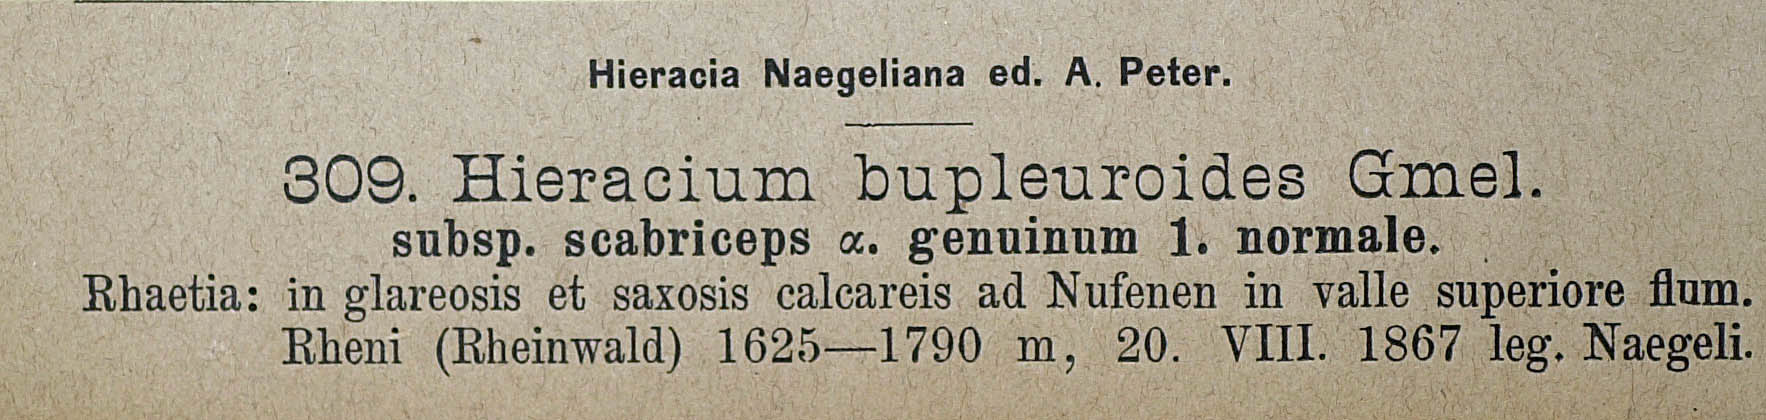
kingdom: Plantae
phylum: Tracheophyta
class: Magnoliopsida
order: Asterales
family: Asteraceae
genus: Hieracium
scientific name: Hieracium bupleuroides
